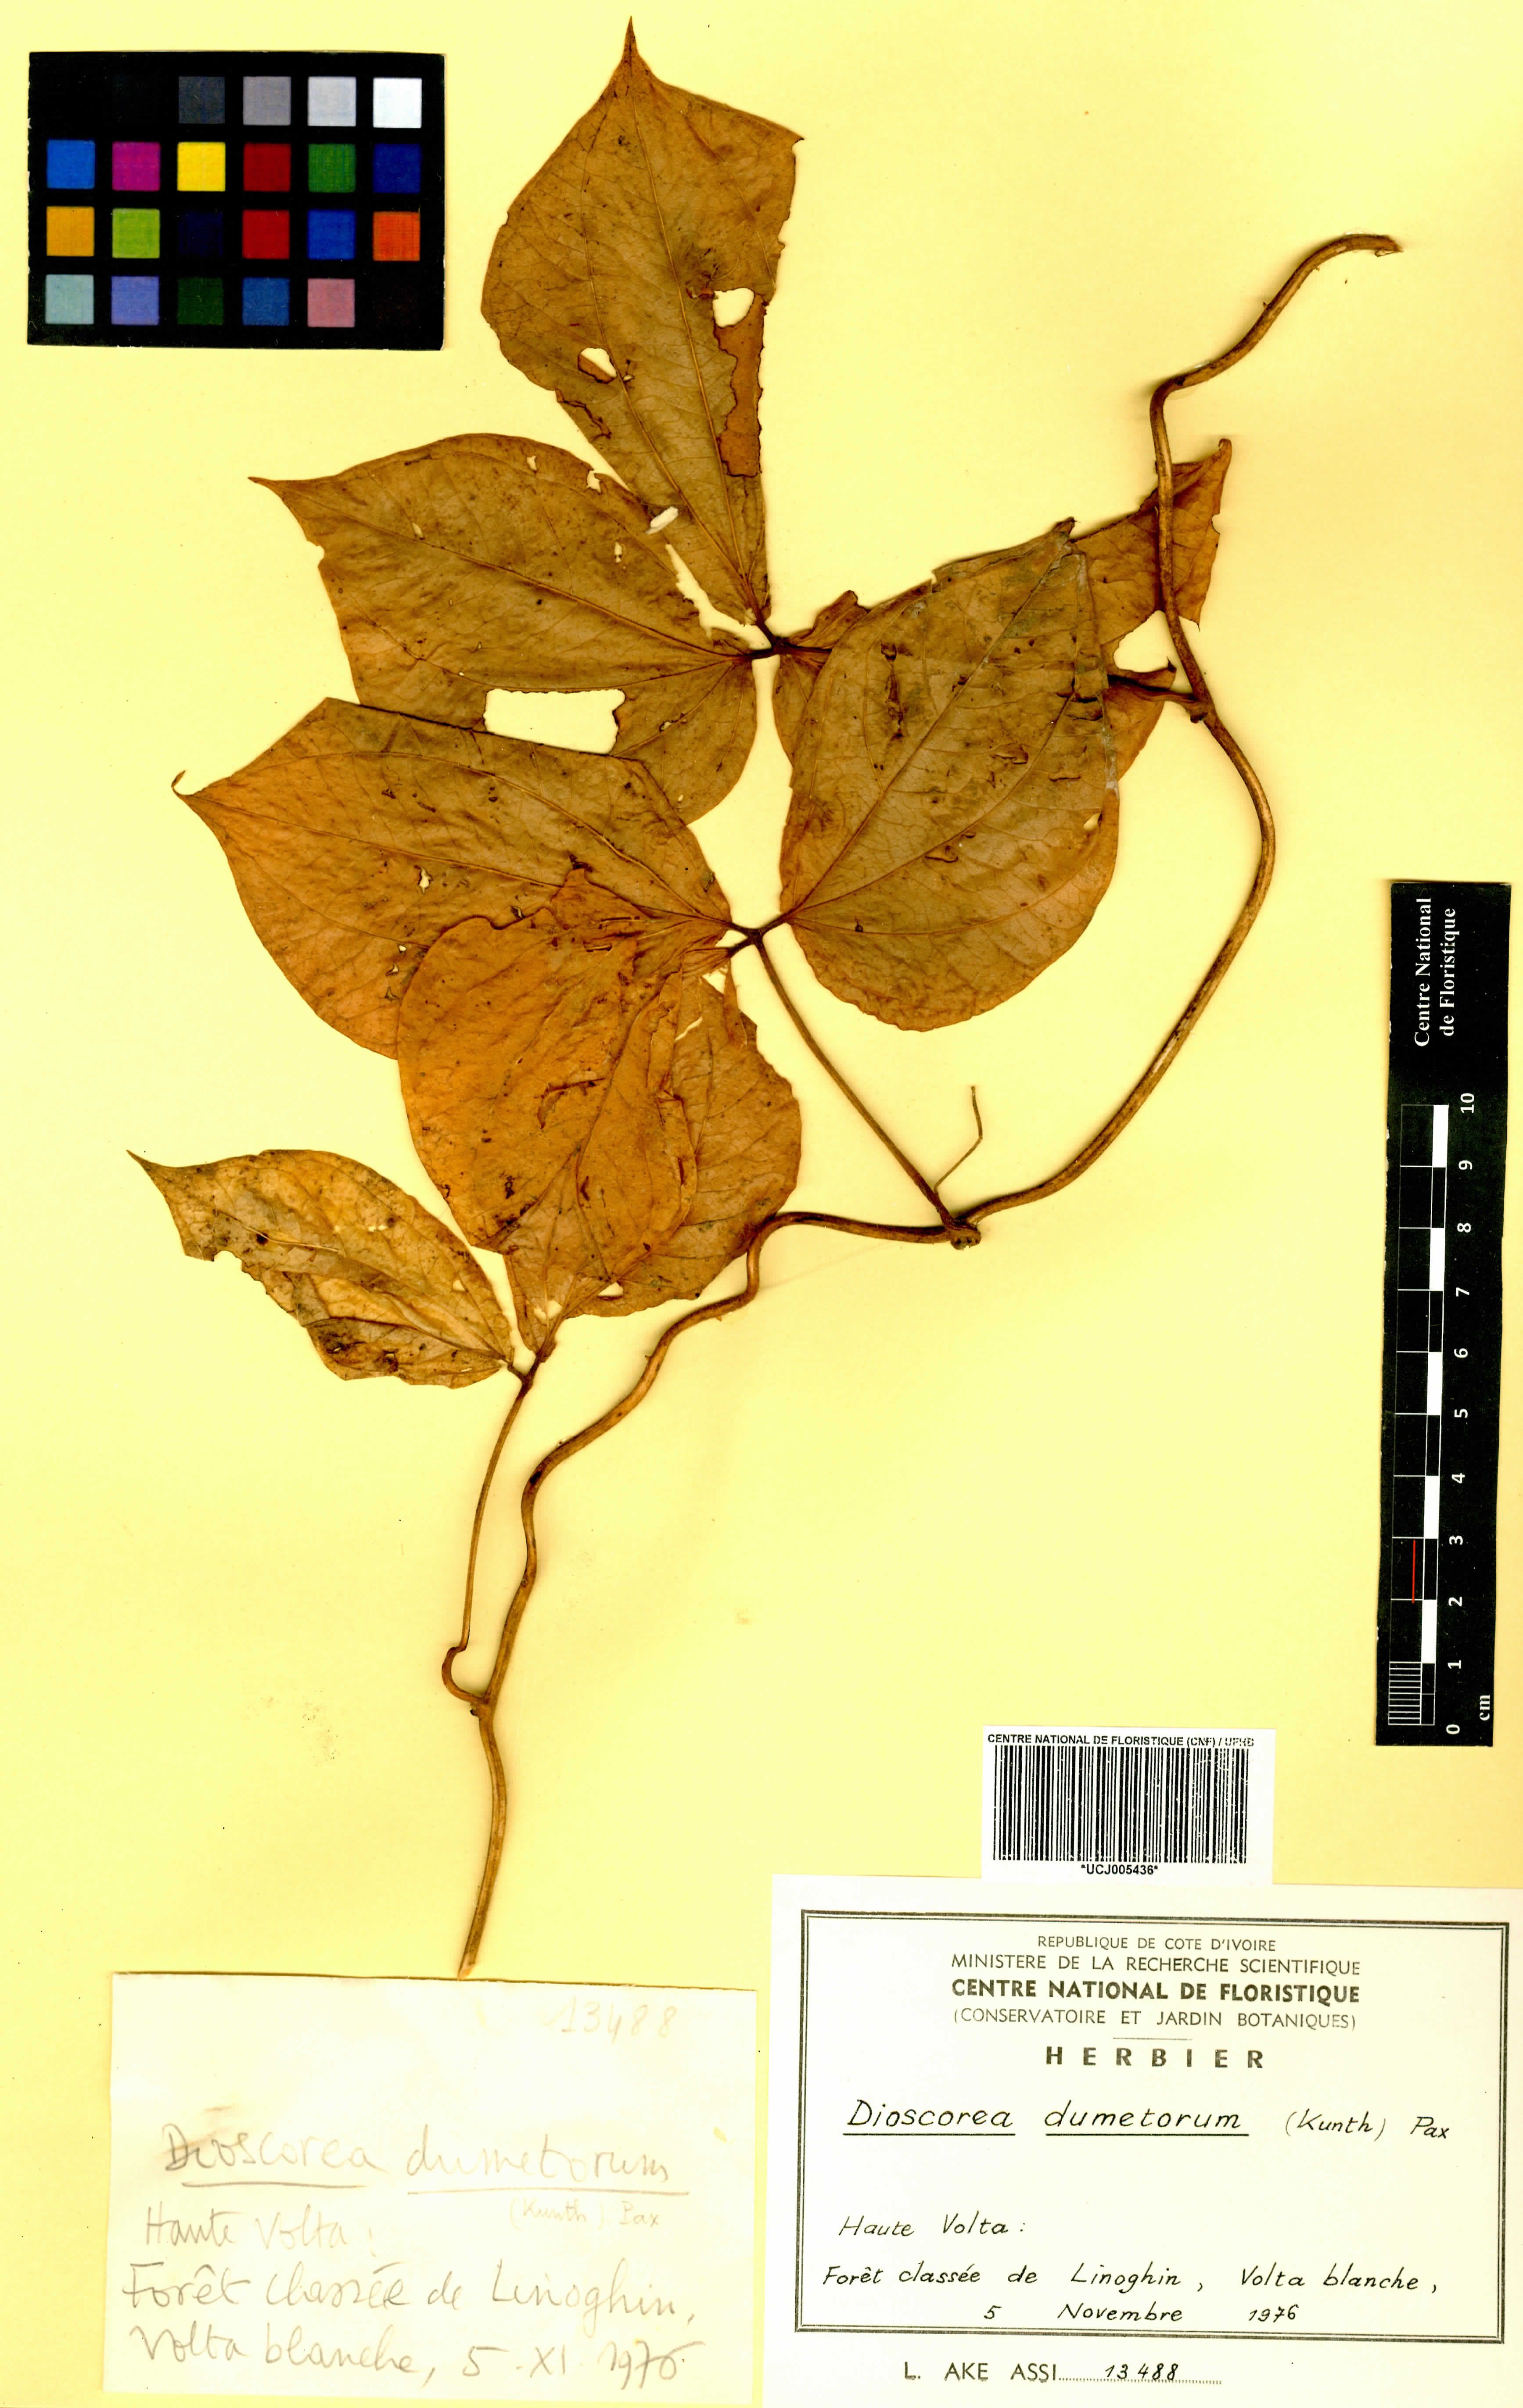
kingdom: Plantae
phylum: Tracheophyta
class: Liliopsida
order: Dioscoreales
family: Dioscoreaceae
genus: Dioscorea
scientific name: Dioscorea dumetorum
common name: African bitter yam
